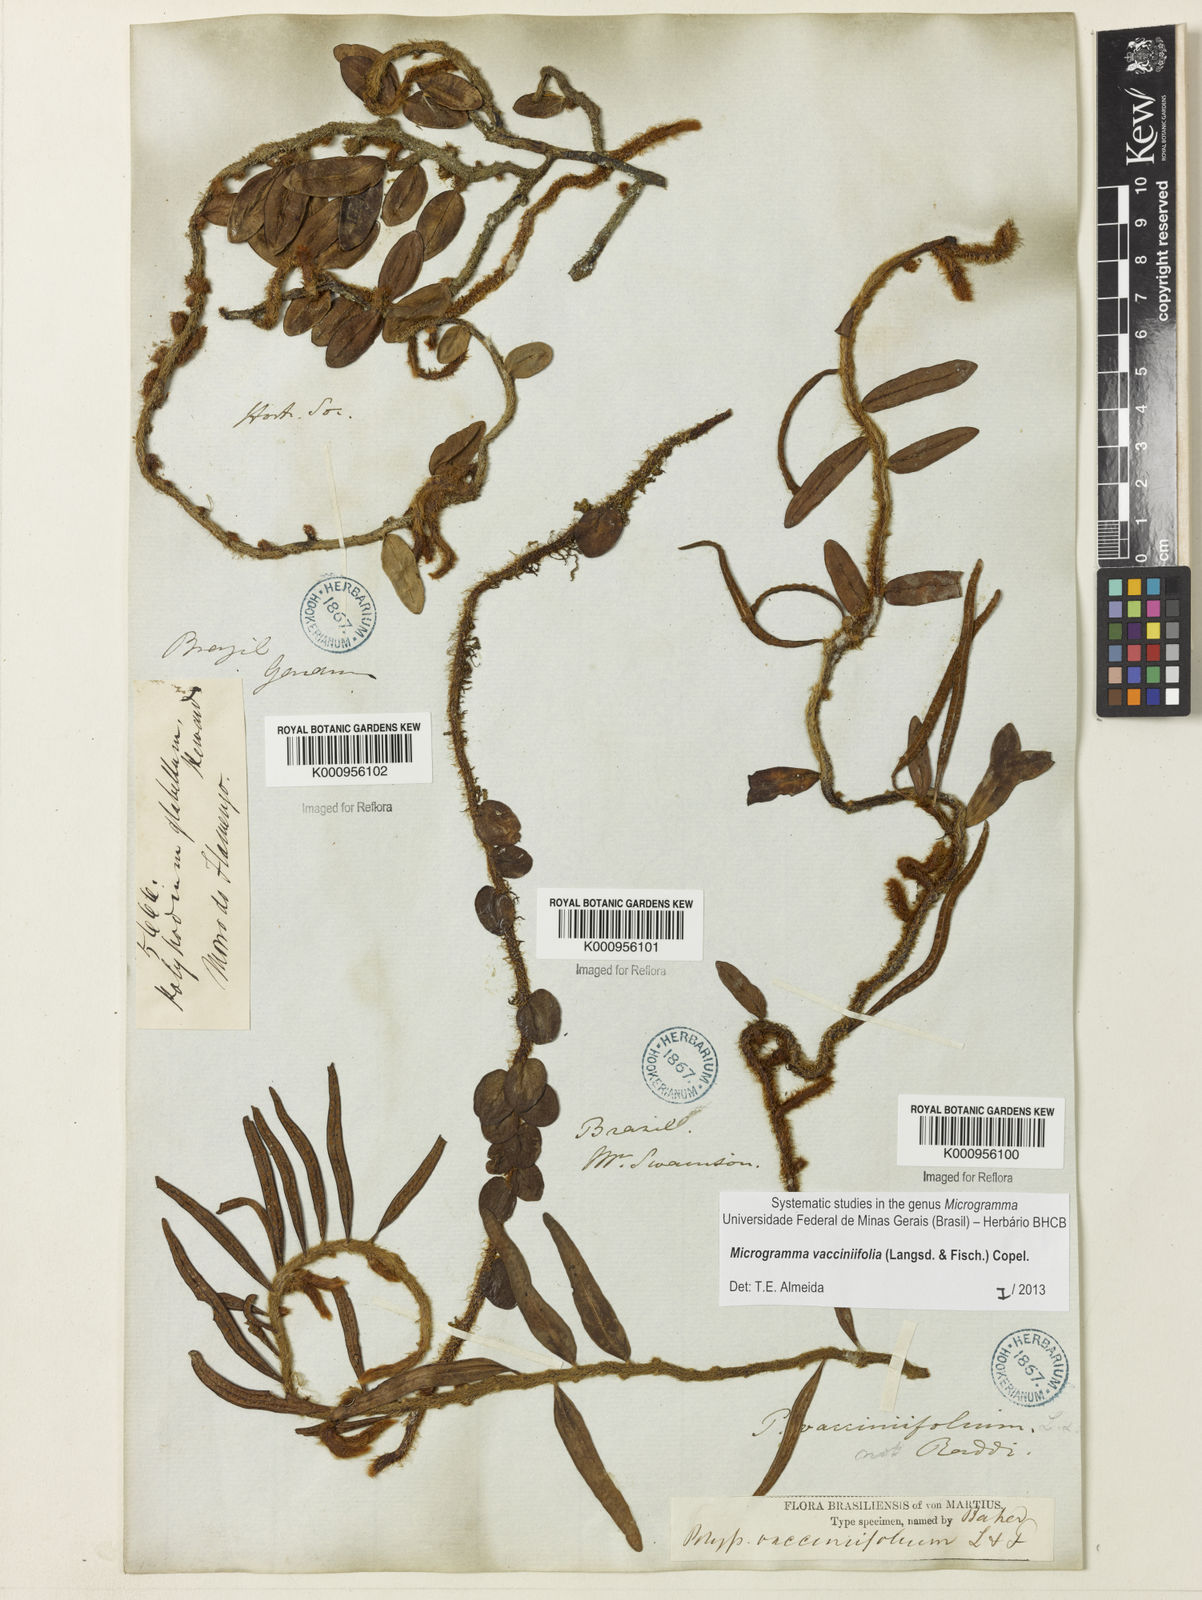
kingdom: Plantae
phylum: Tracheophyta
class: Polypodiopsida
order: Polypodiales
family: Polypodiaceae
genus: Phlebodium
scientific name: Phlebodium
